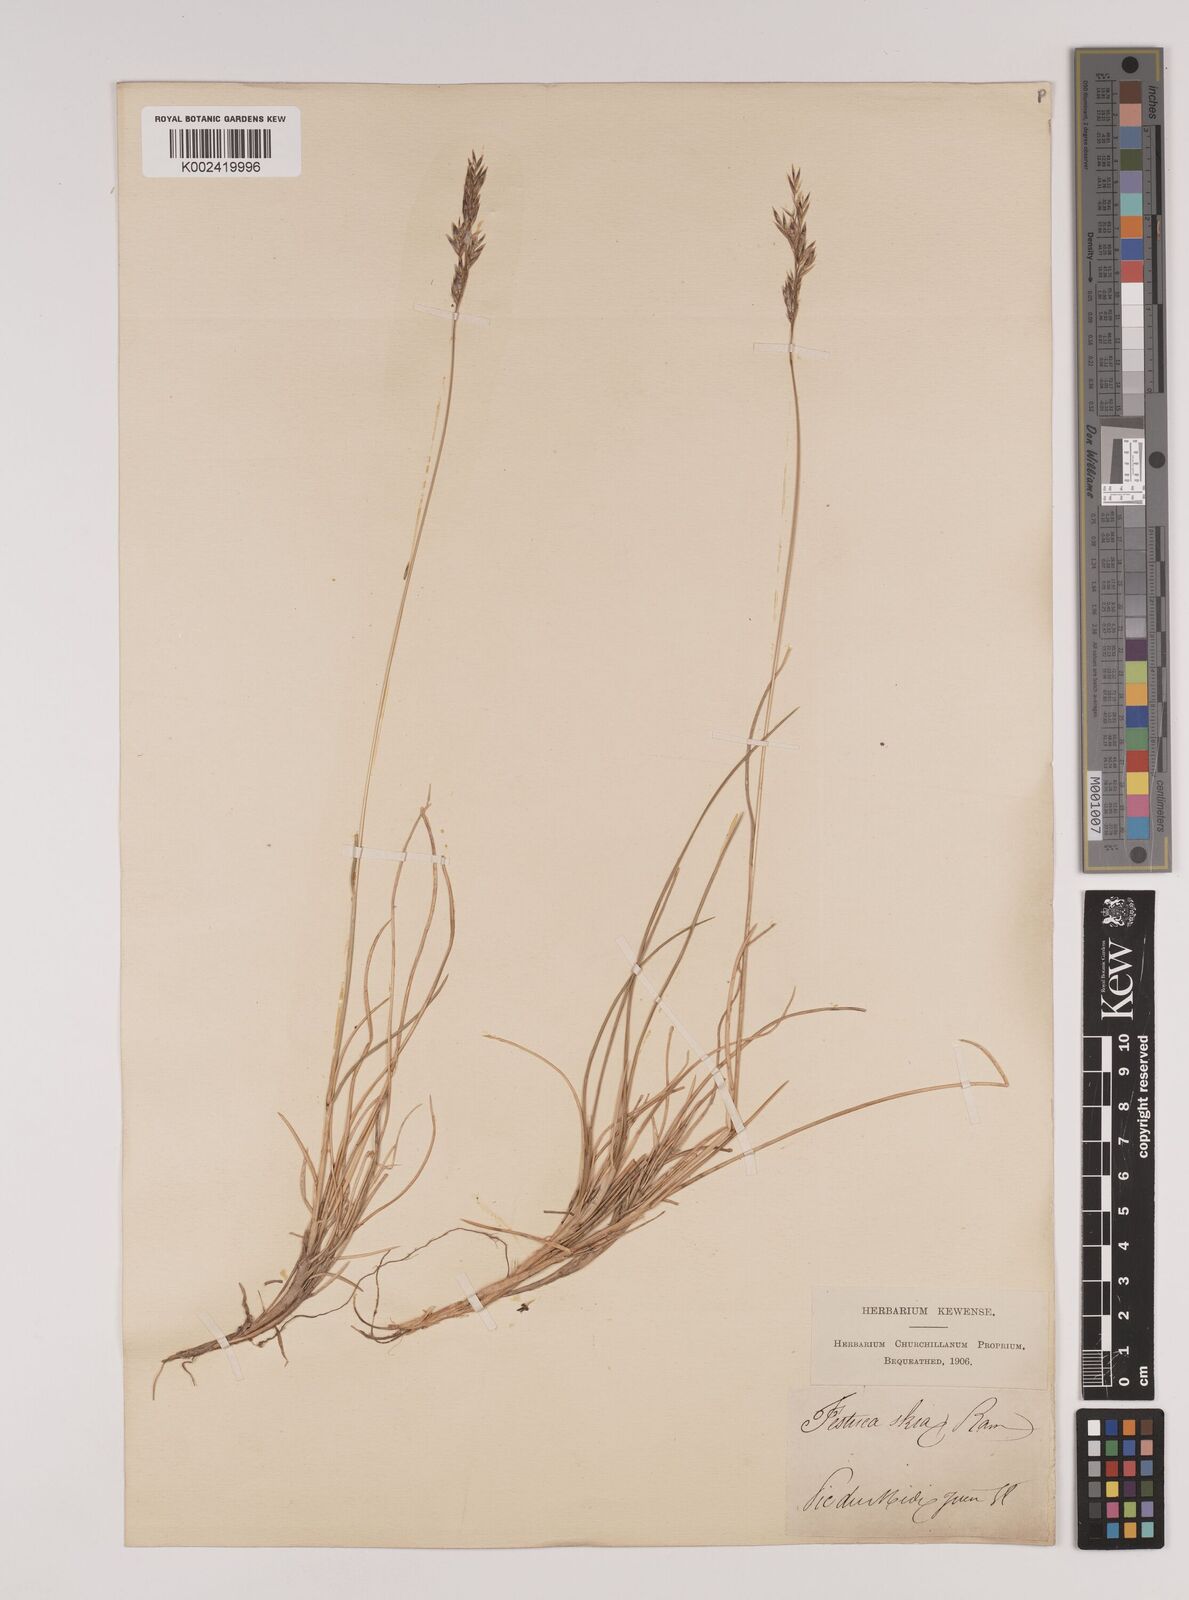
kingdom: Plantae
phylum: Tracheophyta
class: Liliopsida
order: Poales
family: Poaceae
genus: Festuca
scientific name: Festuca eskia
